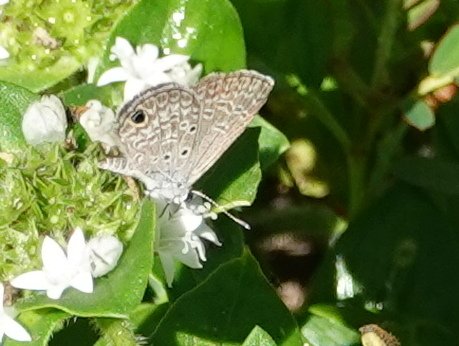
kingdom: Animalia
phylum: Arthropoda
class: Insecta
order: Lepidoptera
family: Lycaenidae
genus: Hemiargus
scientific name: Hemiargus ceraunus
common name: Ceraunus Blue
